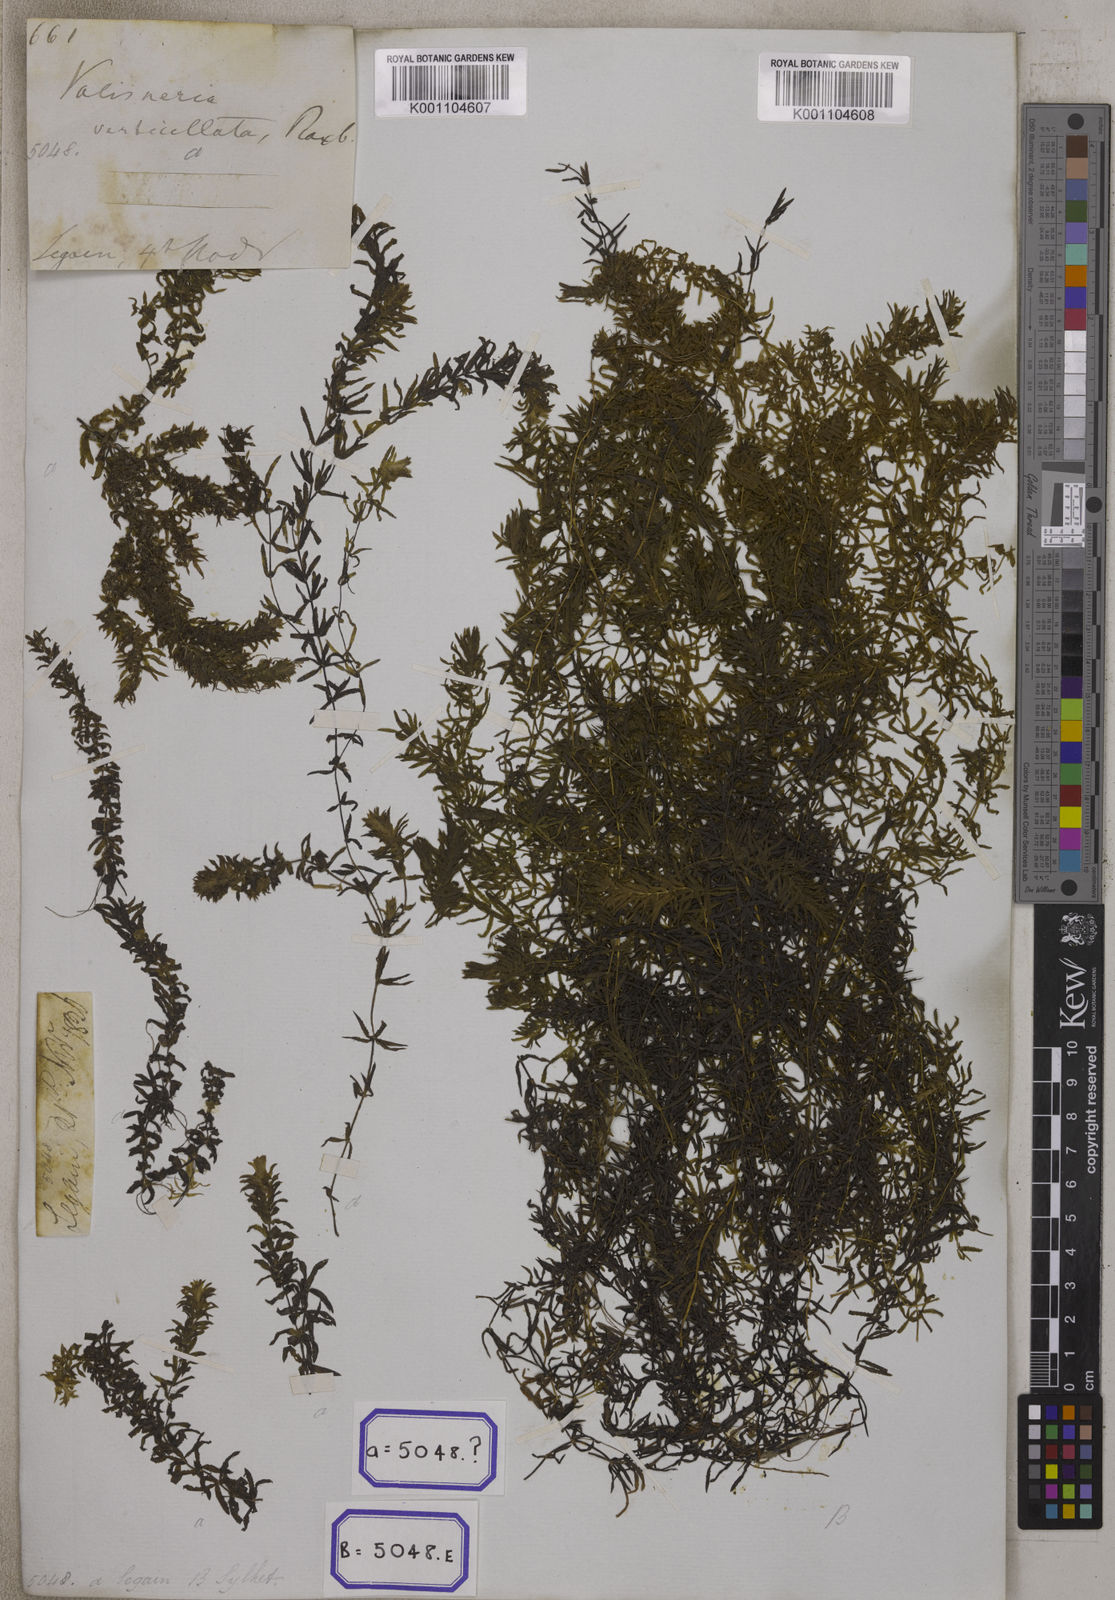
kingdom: Plantae
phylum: Tracheophyta
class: Magnoliopsida
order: Saxifragales
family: Haloragaceae
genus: Serpicula
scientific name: Serpicula
